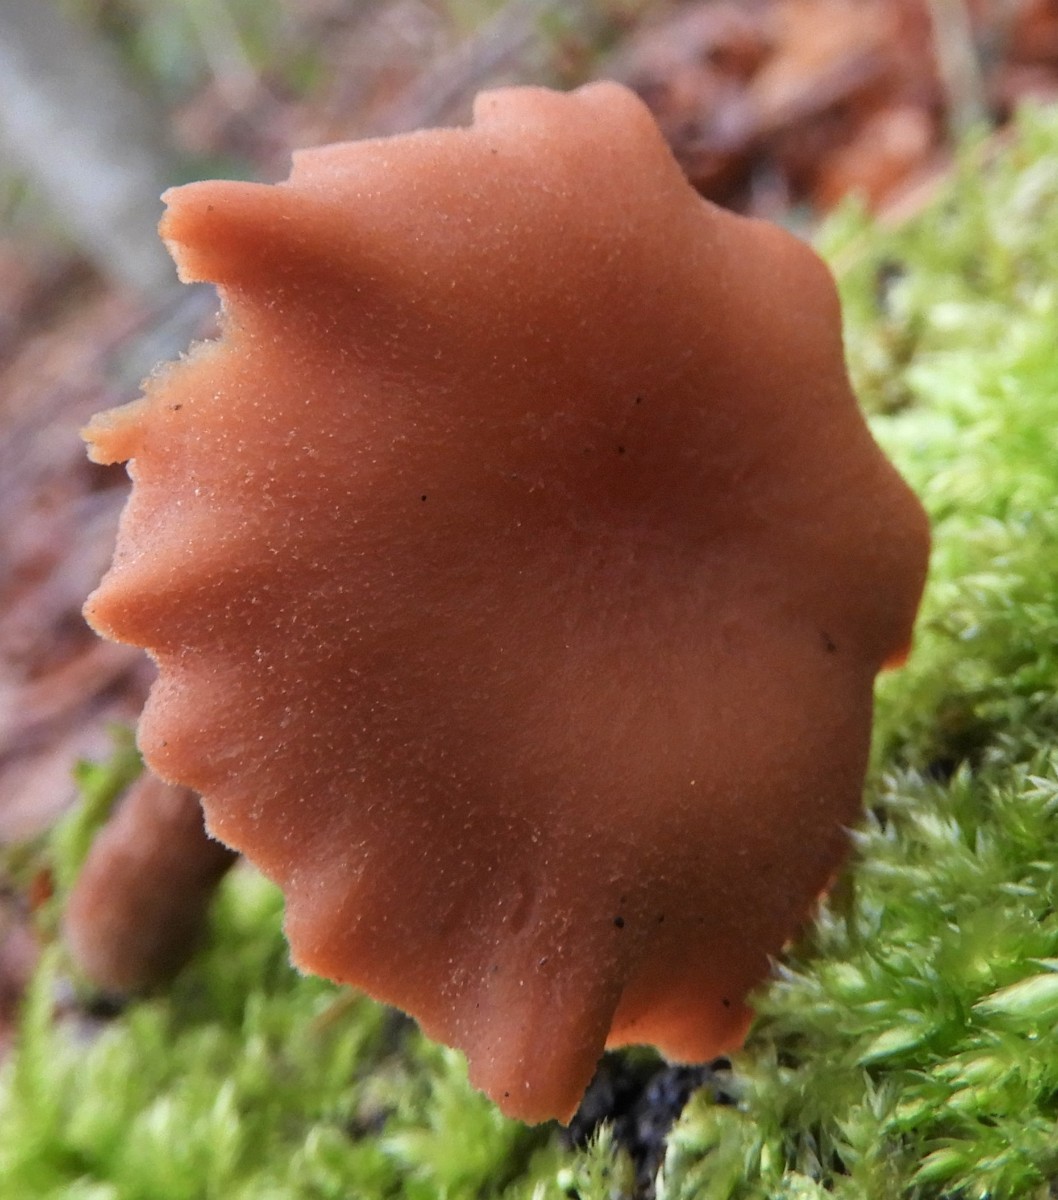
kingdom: Fungi
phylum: Basidiomycota
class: Agaricomycetes
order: Agaricales
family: Hydnangiaceae
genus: Laccaria
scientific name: Laccaria proxima
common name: stor ametysthat
